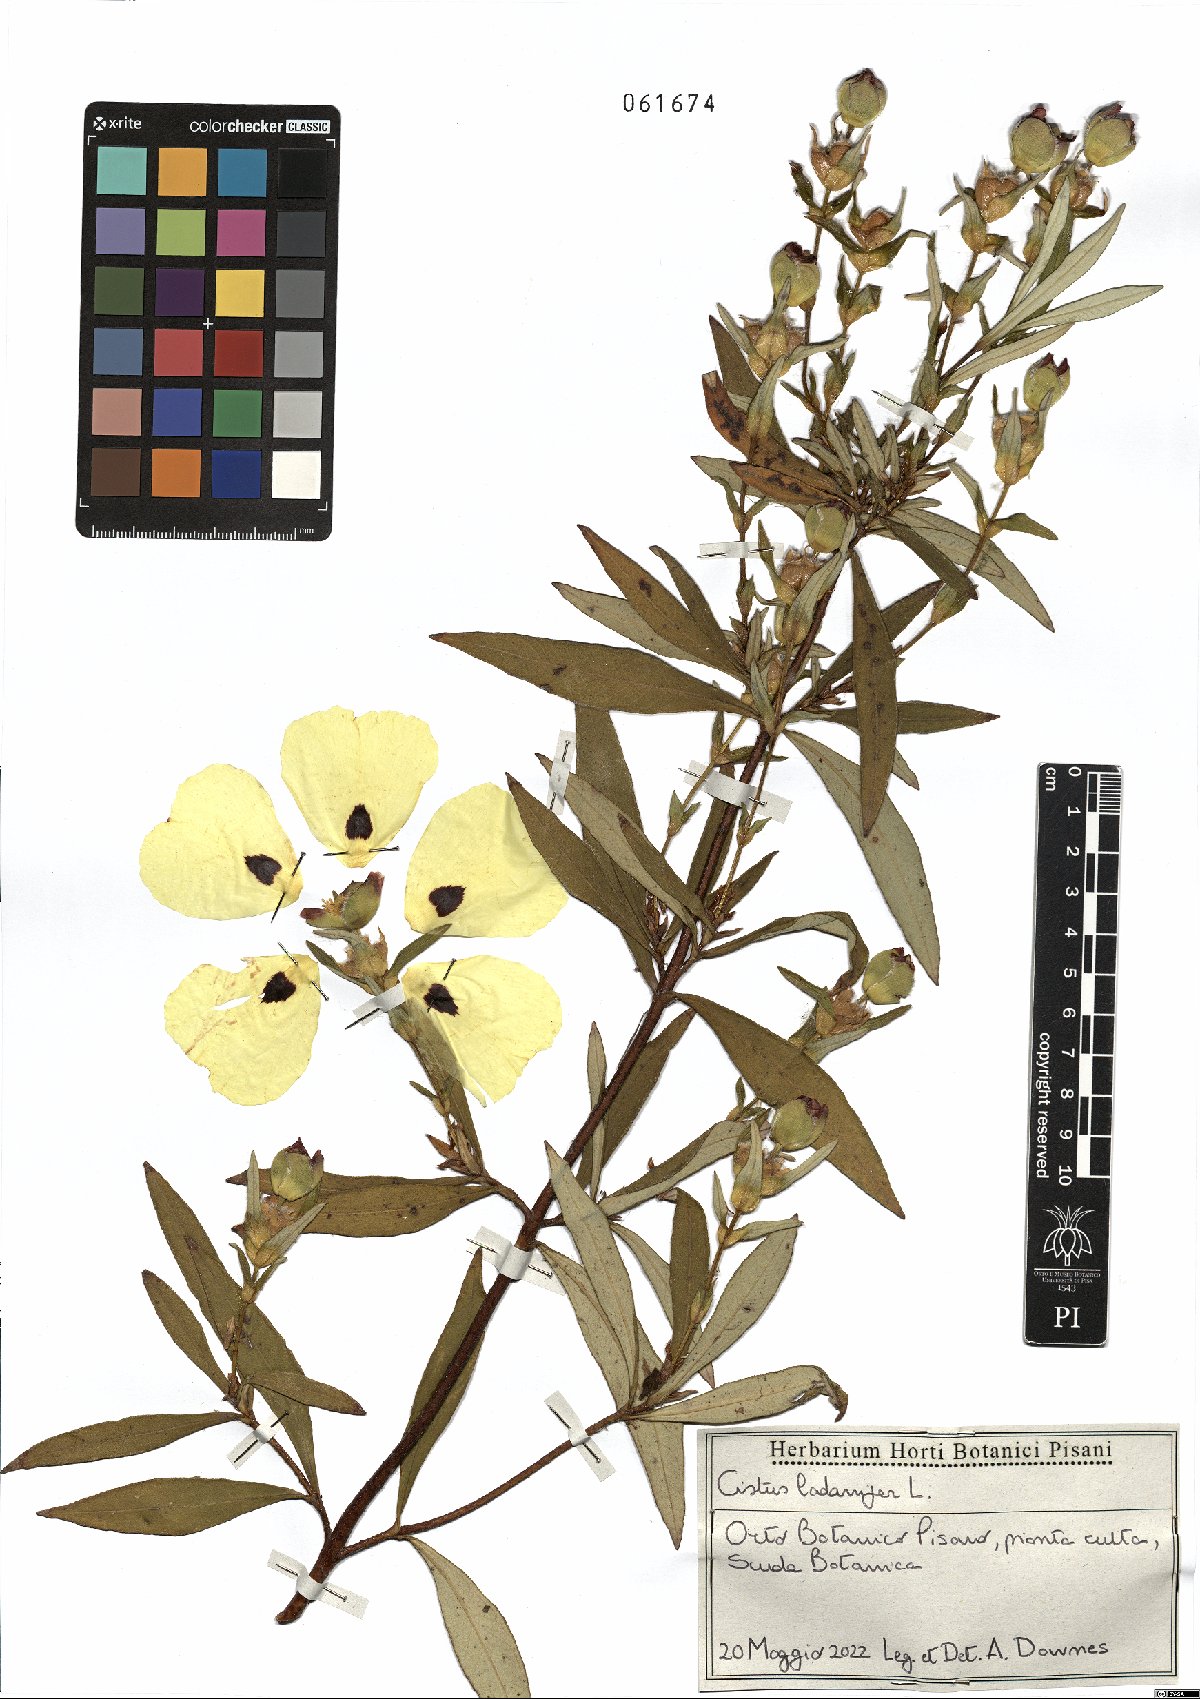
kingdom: Plantae
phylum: Tracheophyta
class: Magnoliopsida
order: Malvales
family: Cistaceae
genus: Cistus
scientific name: Cistus ladanifer
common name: Common gum cistus
